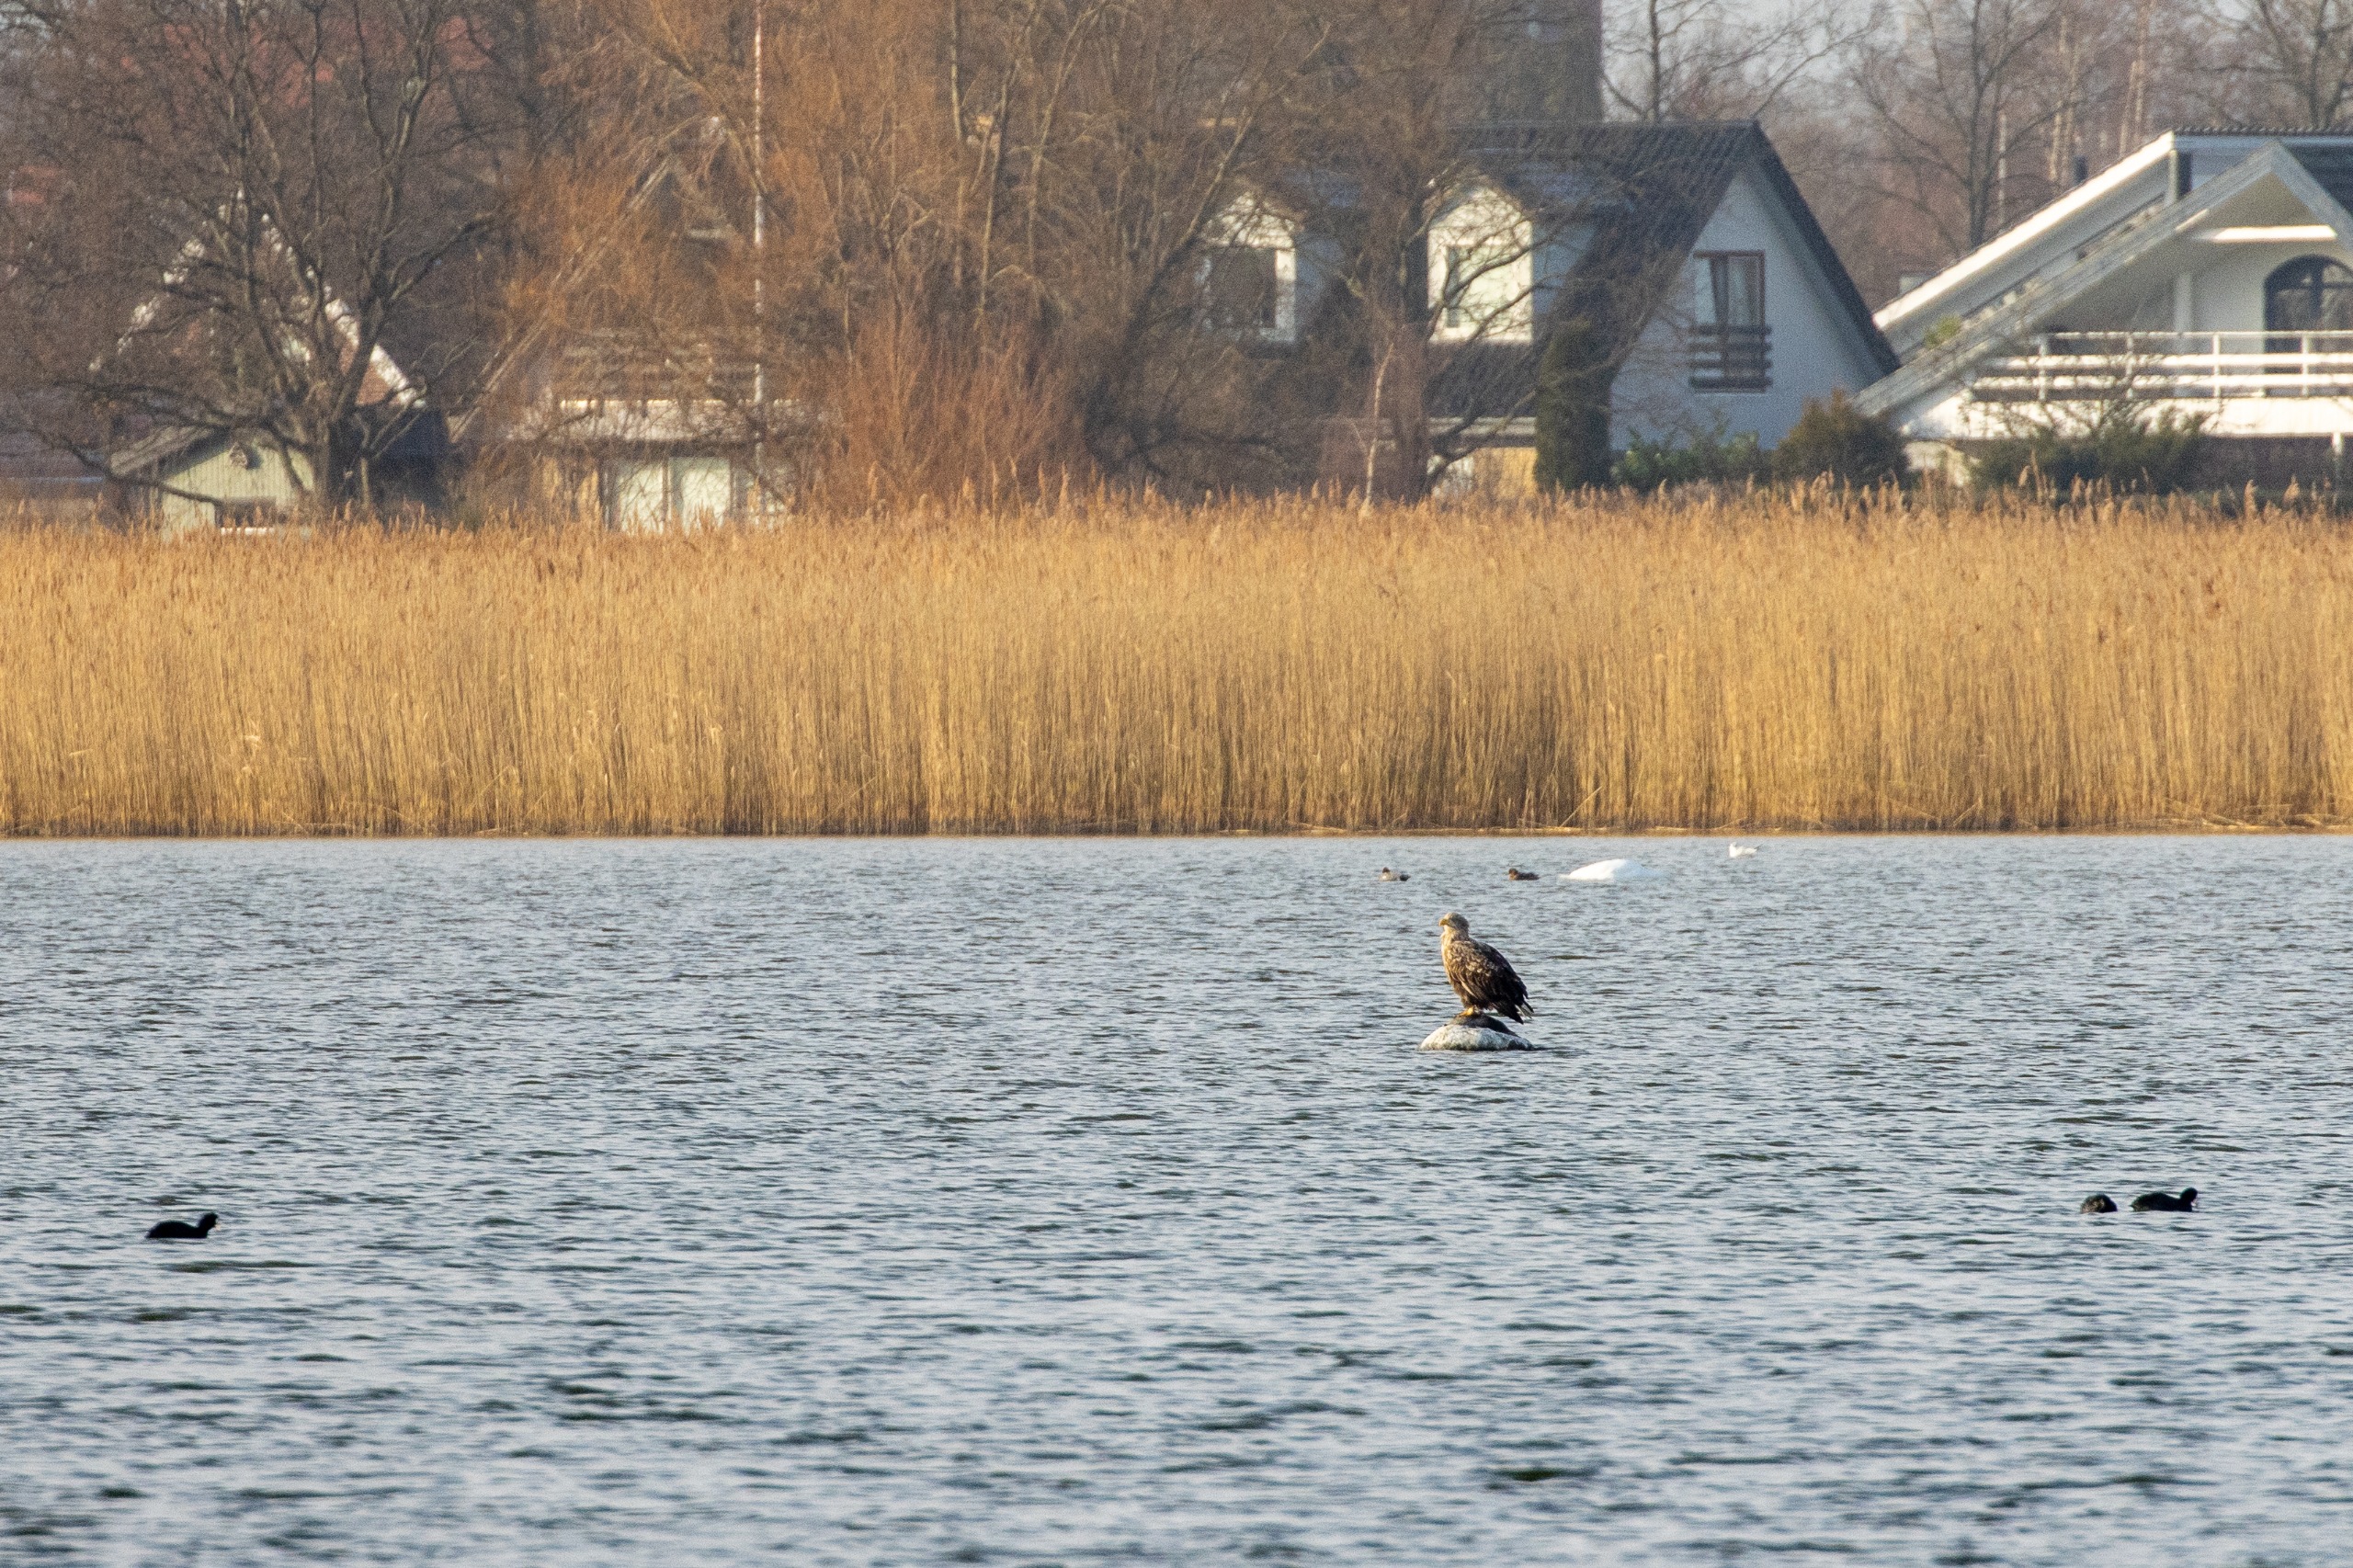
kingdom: Animalia
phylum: Chordata
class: Aves
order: Accipitriformes
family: Accipitridae
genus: Haliaeetus
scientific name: Haliaeetus albicilla
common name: Havørn
